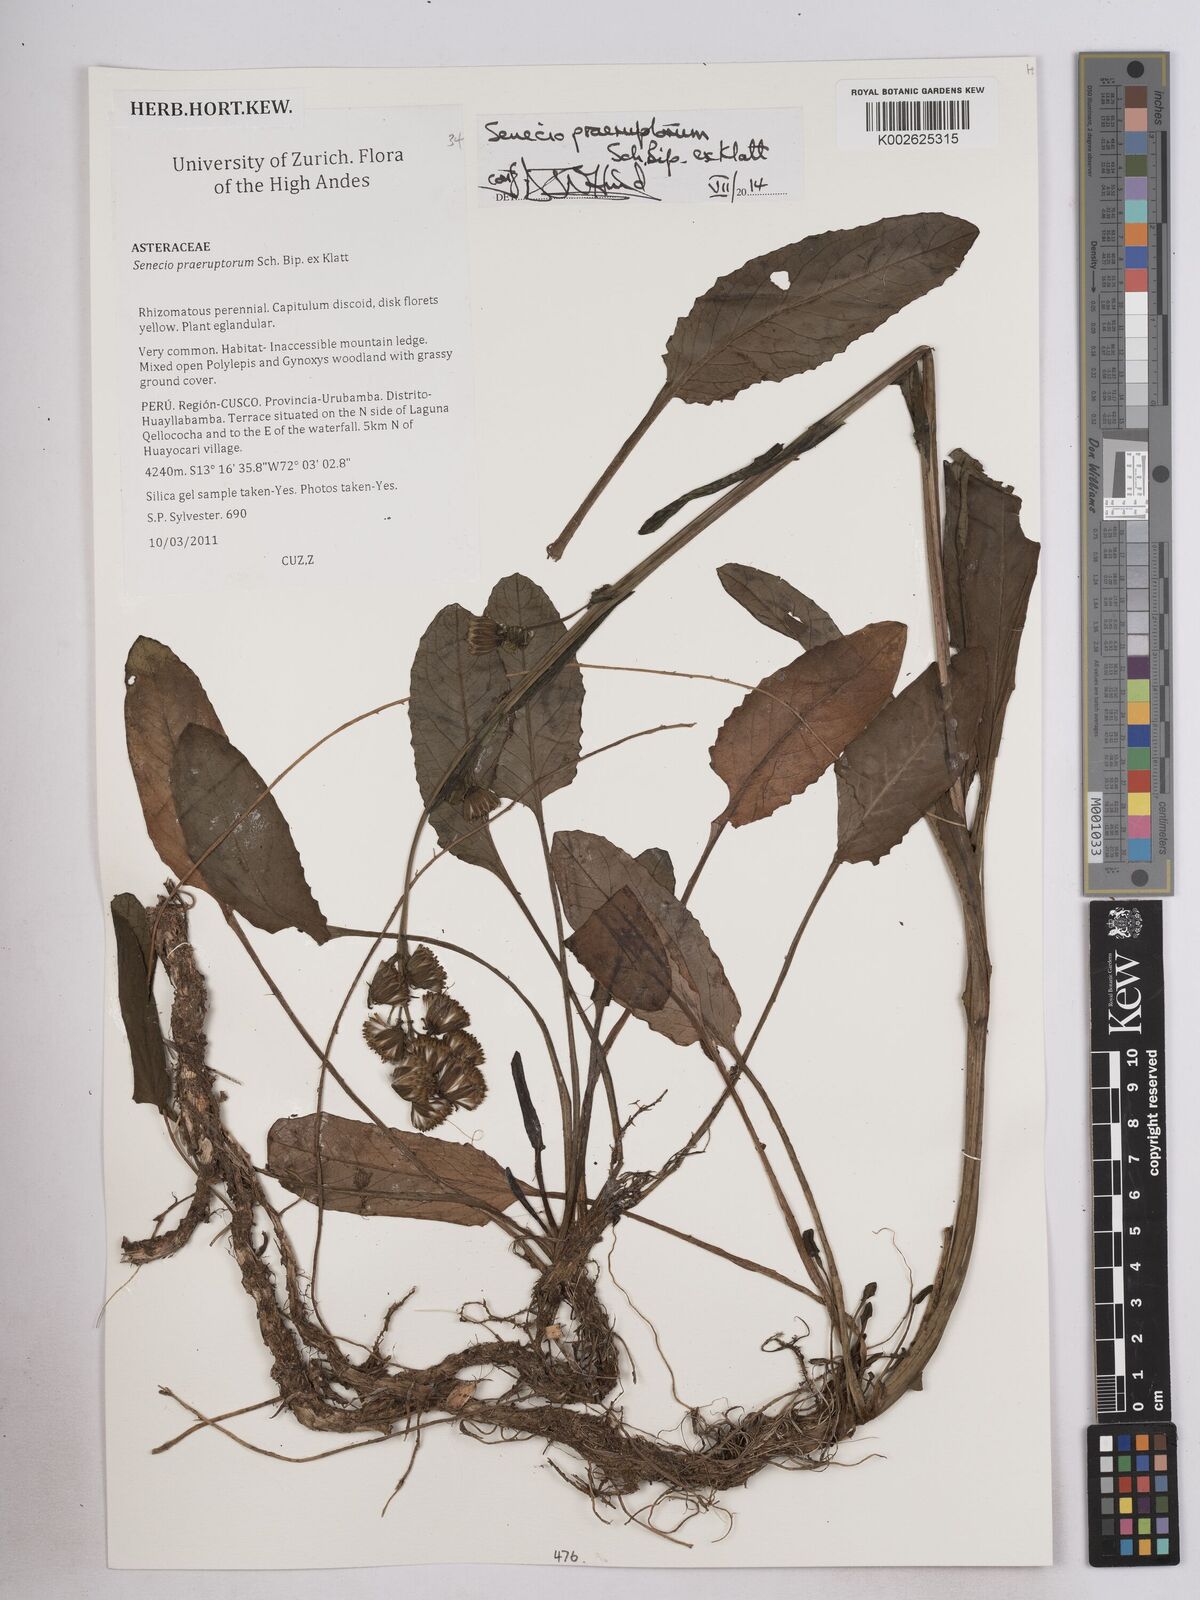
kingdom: Plantae
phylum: Tracheophyta
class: Magnoliopsida
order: Asterales
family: Asteraceae
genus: Senecio
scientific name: Senecio praeruptorum
